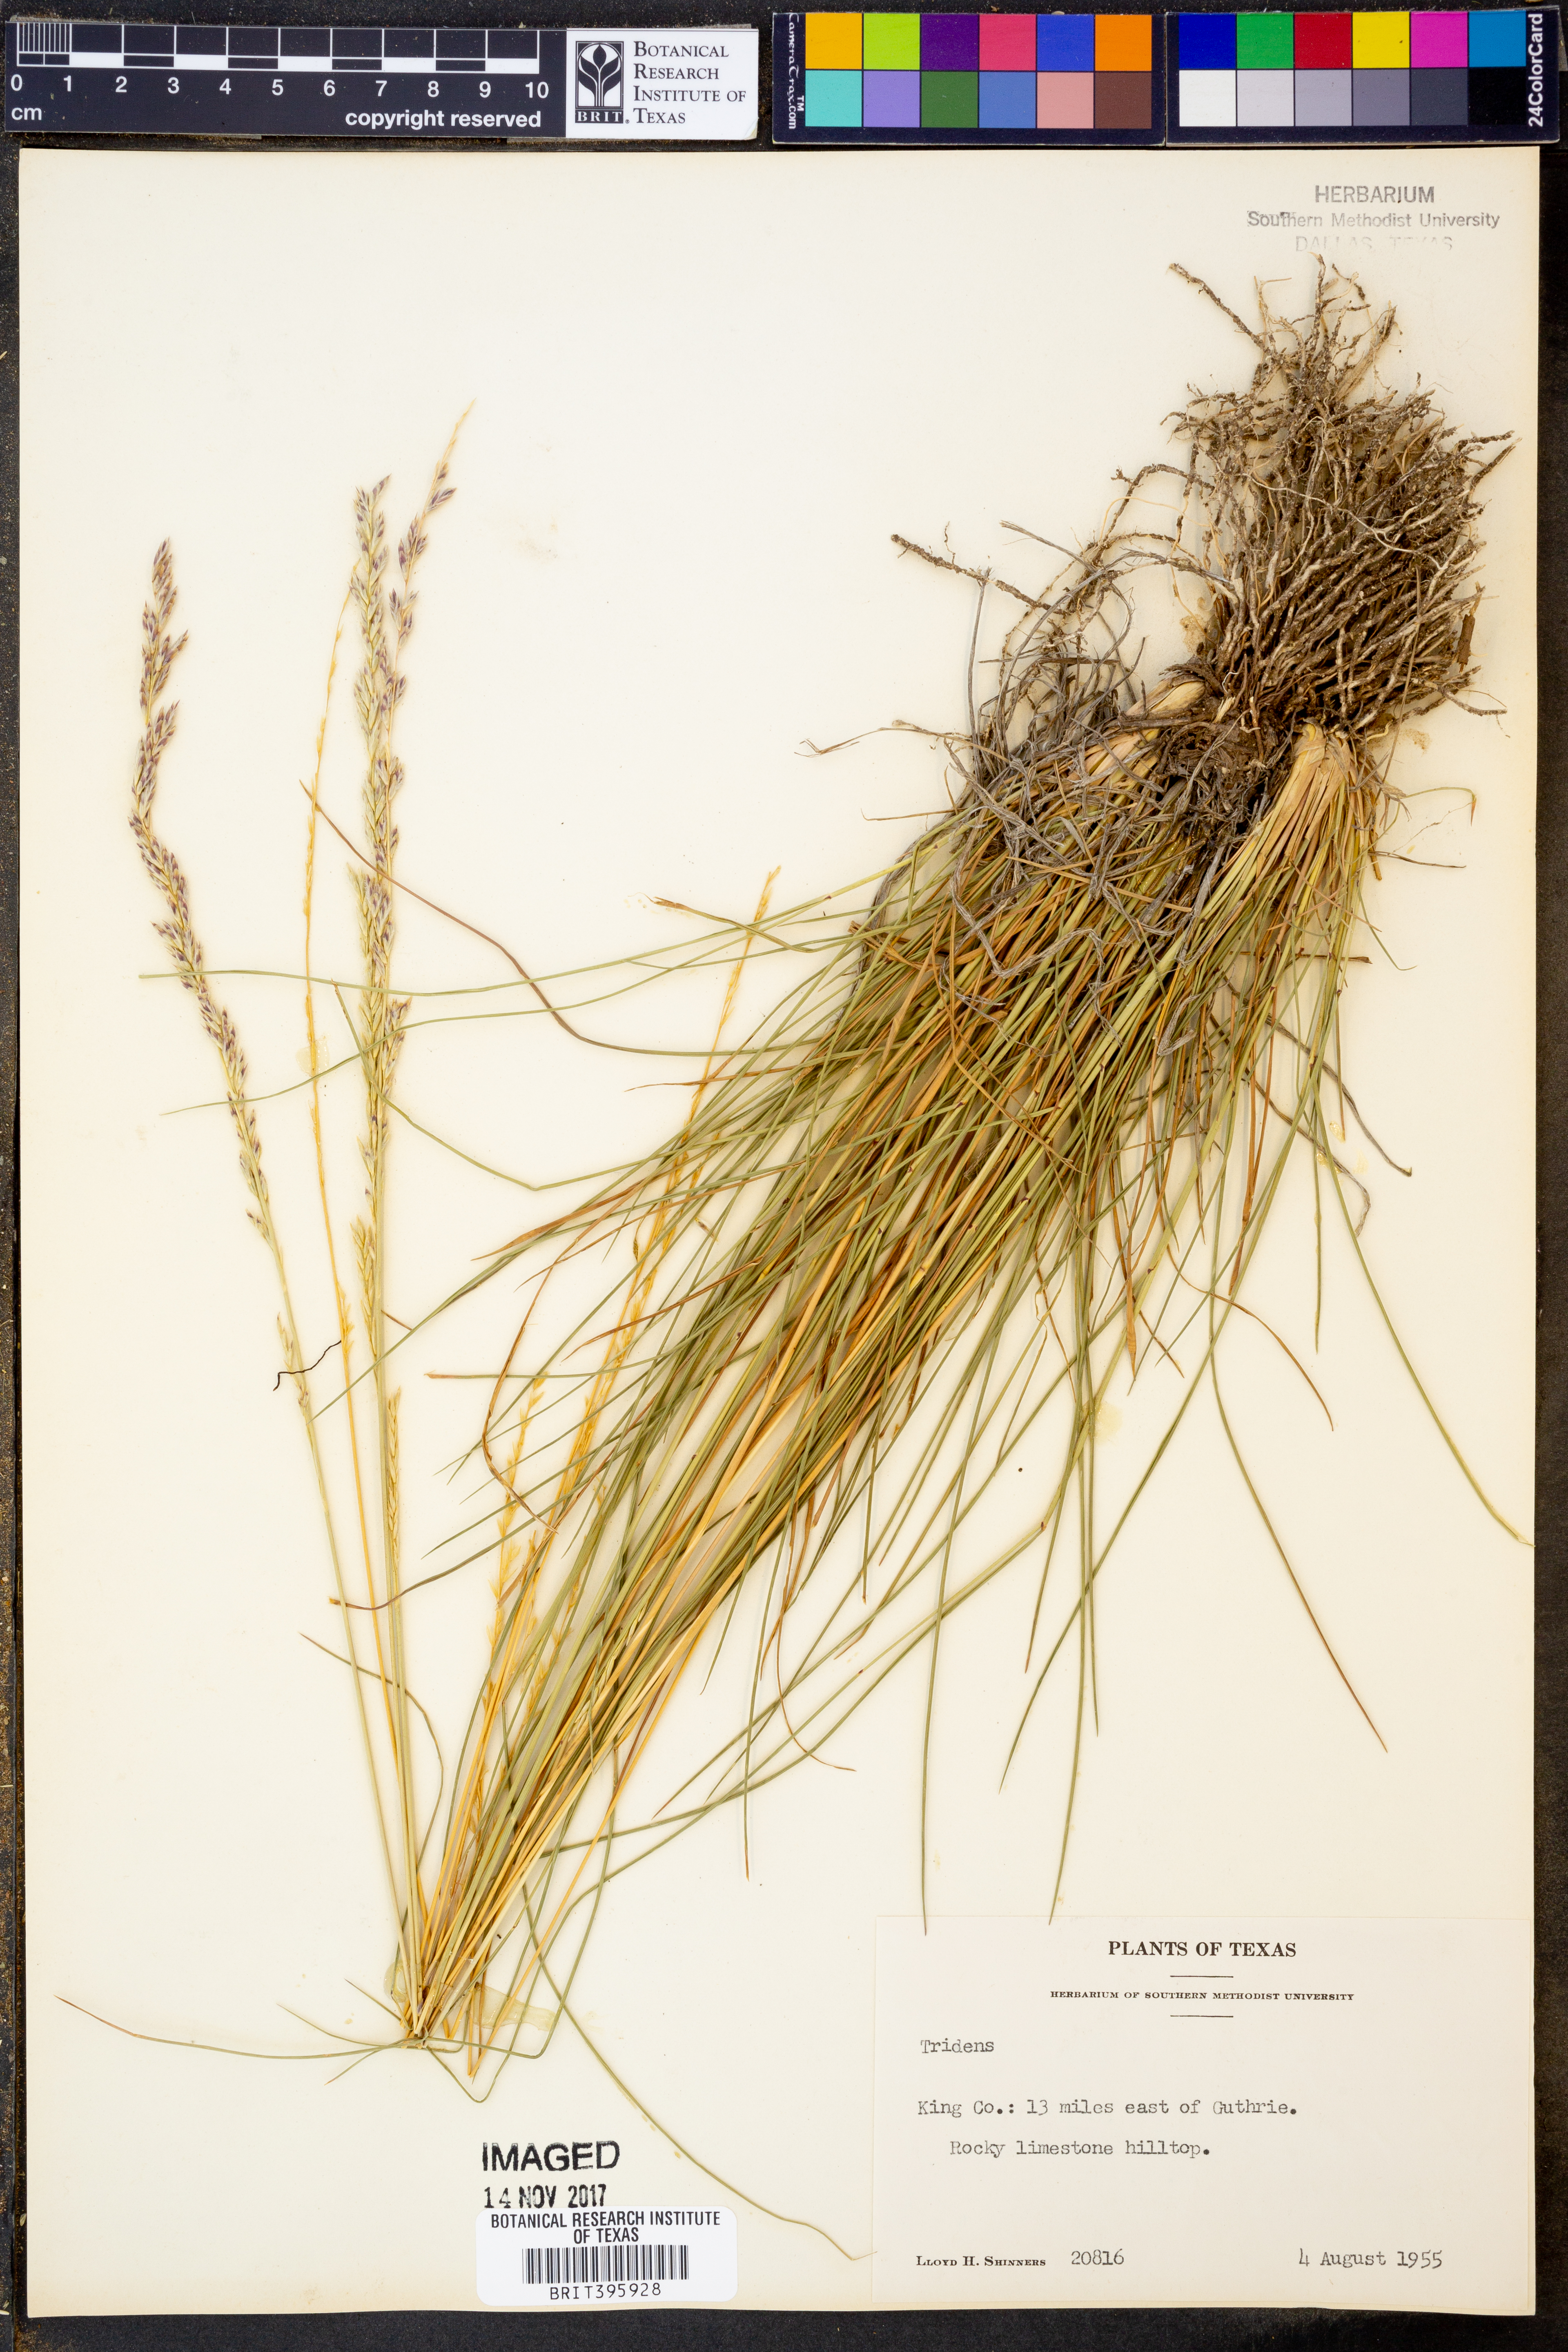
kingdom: Plantae
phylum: Tracheophyta
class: Liliopsida
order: Poales
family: Poaceae
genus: Tridens
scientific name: Tridens
